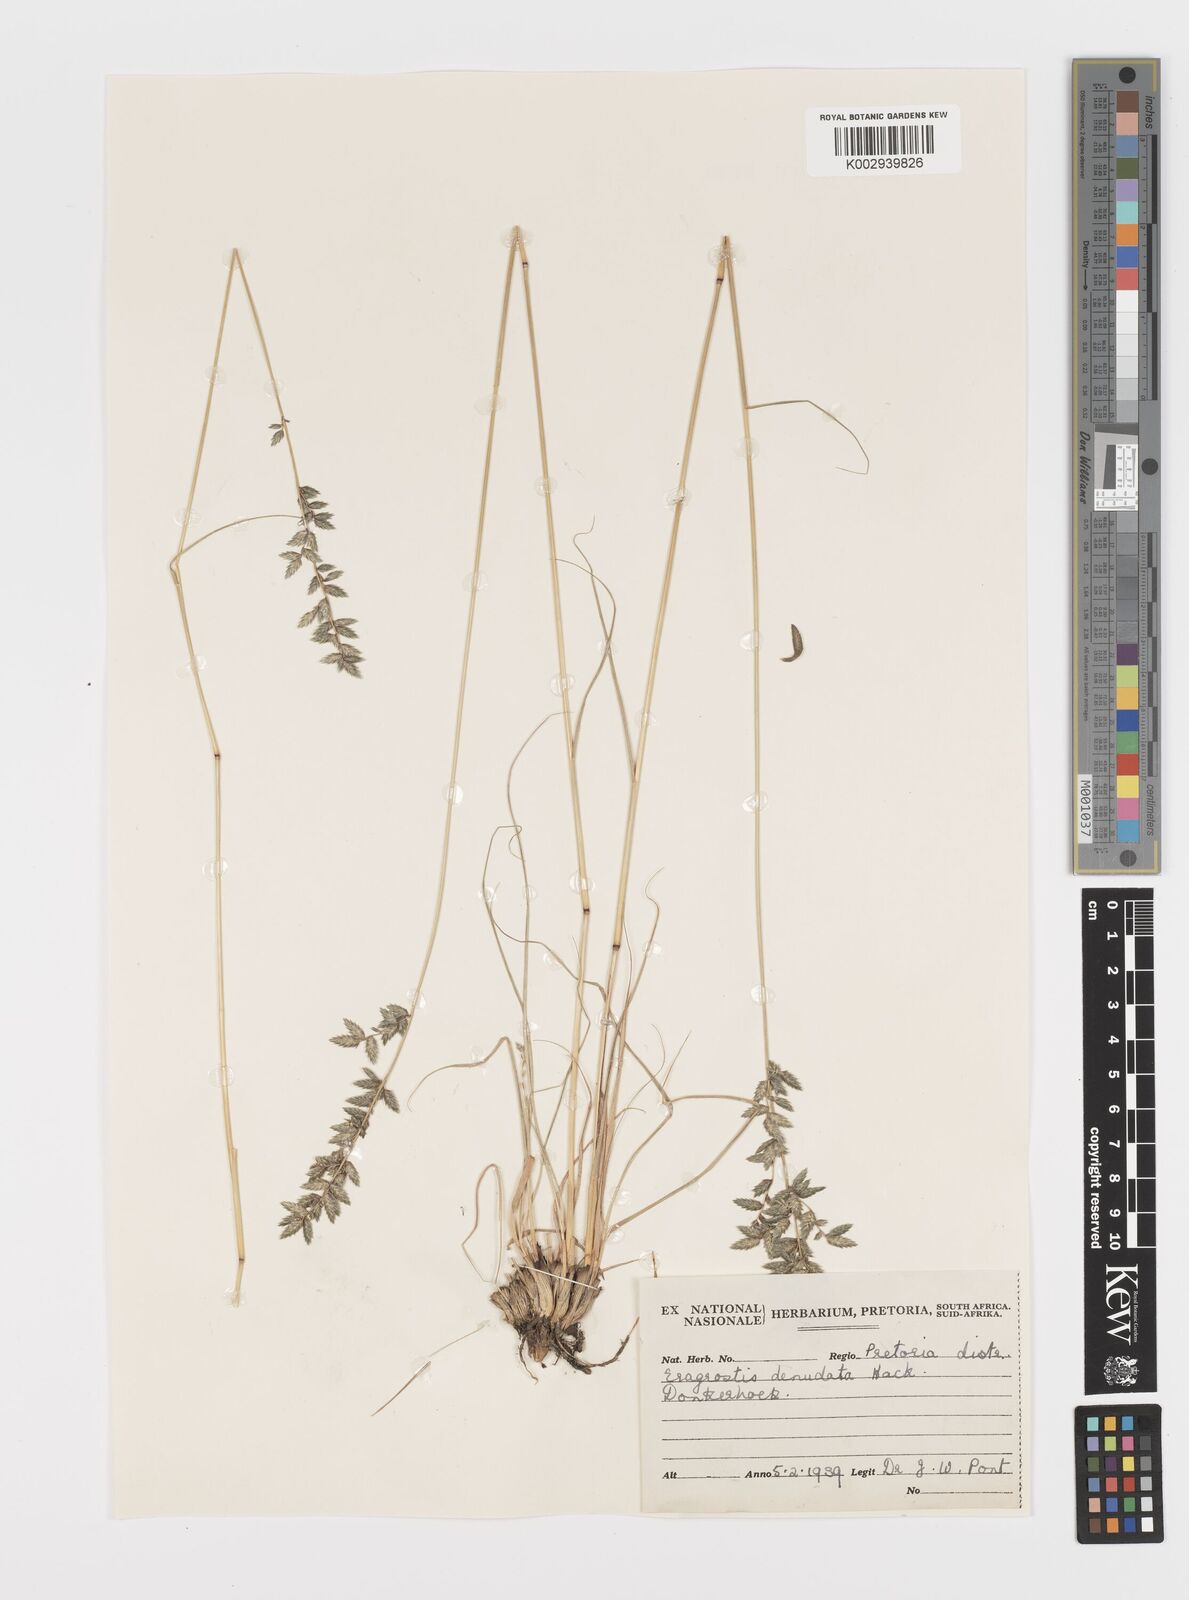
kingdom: Plantae
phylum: Tracheophyta
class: Liliopsida
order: Poales
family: Poaceae
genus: Eragrostis
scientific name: Eragrostis nindensis
